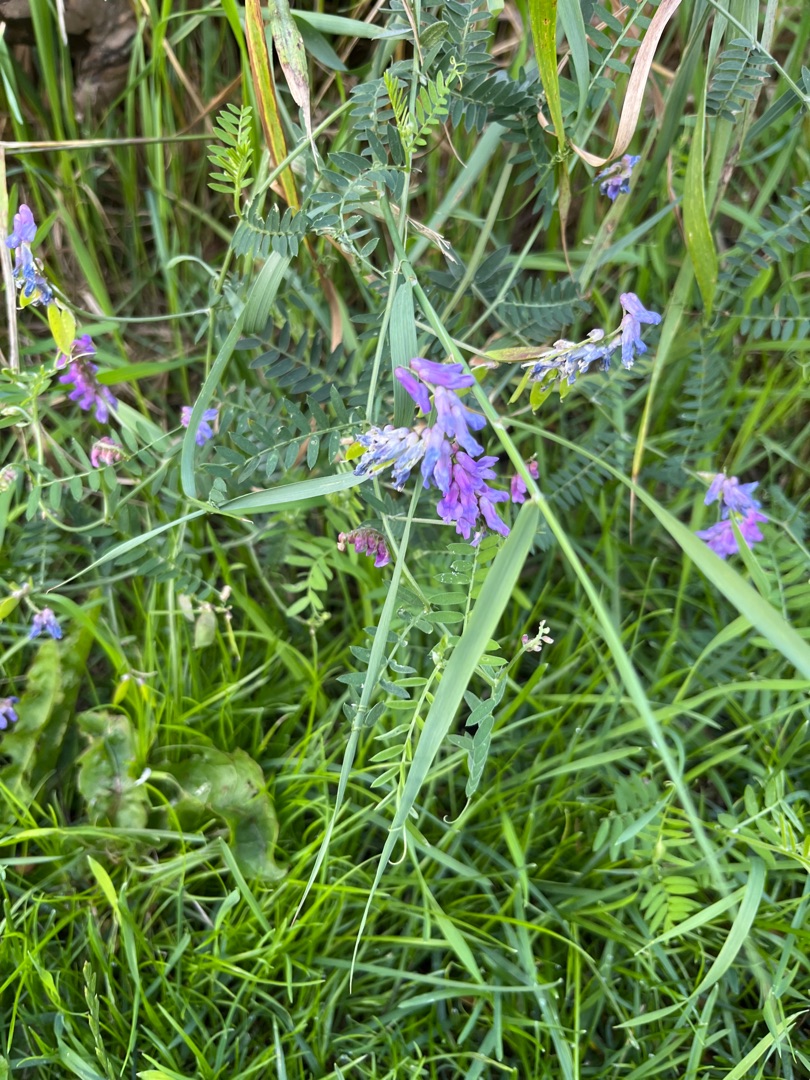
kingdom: Plantae
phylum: Tracheophyta
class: Magnoliopsida
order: Fabales
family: Fabaceae
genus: Vicia
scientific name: Vicia cracca
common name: Muse-vikke
